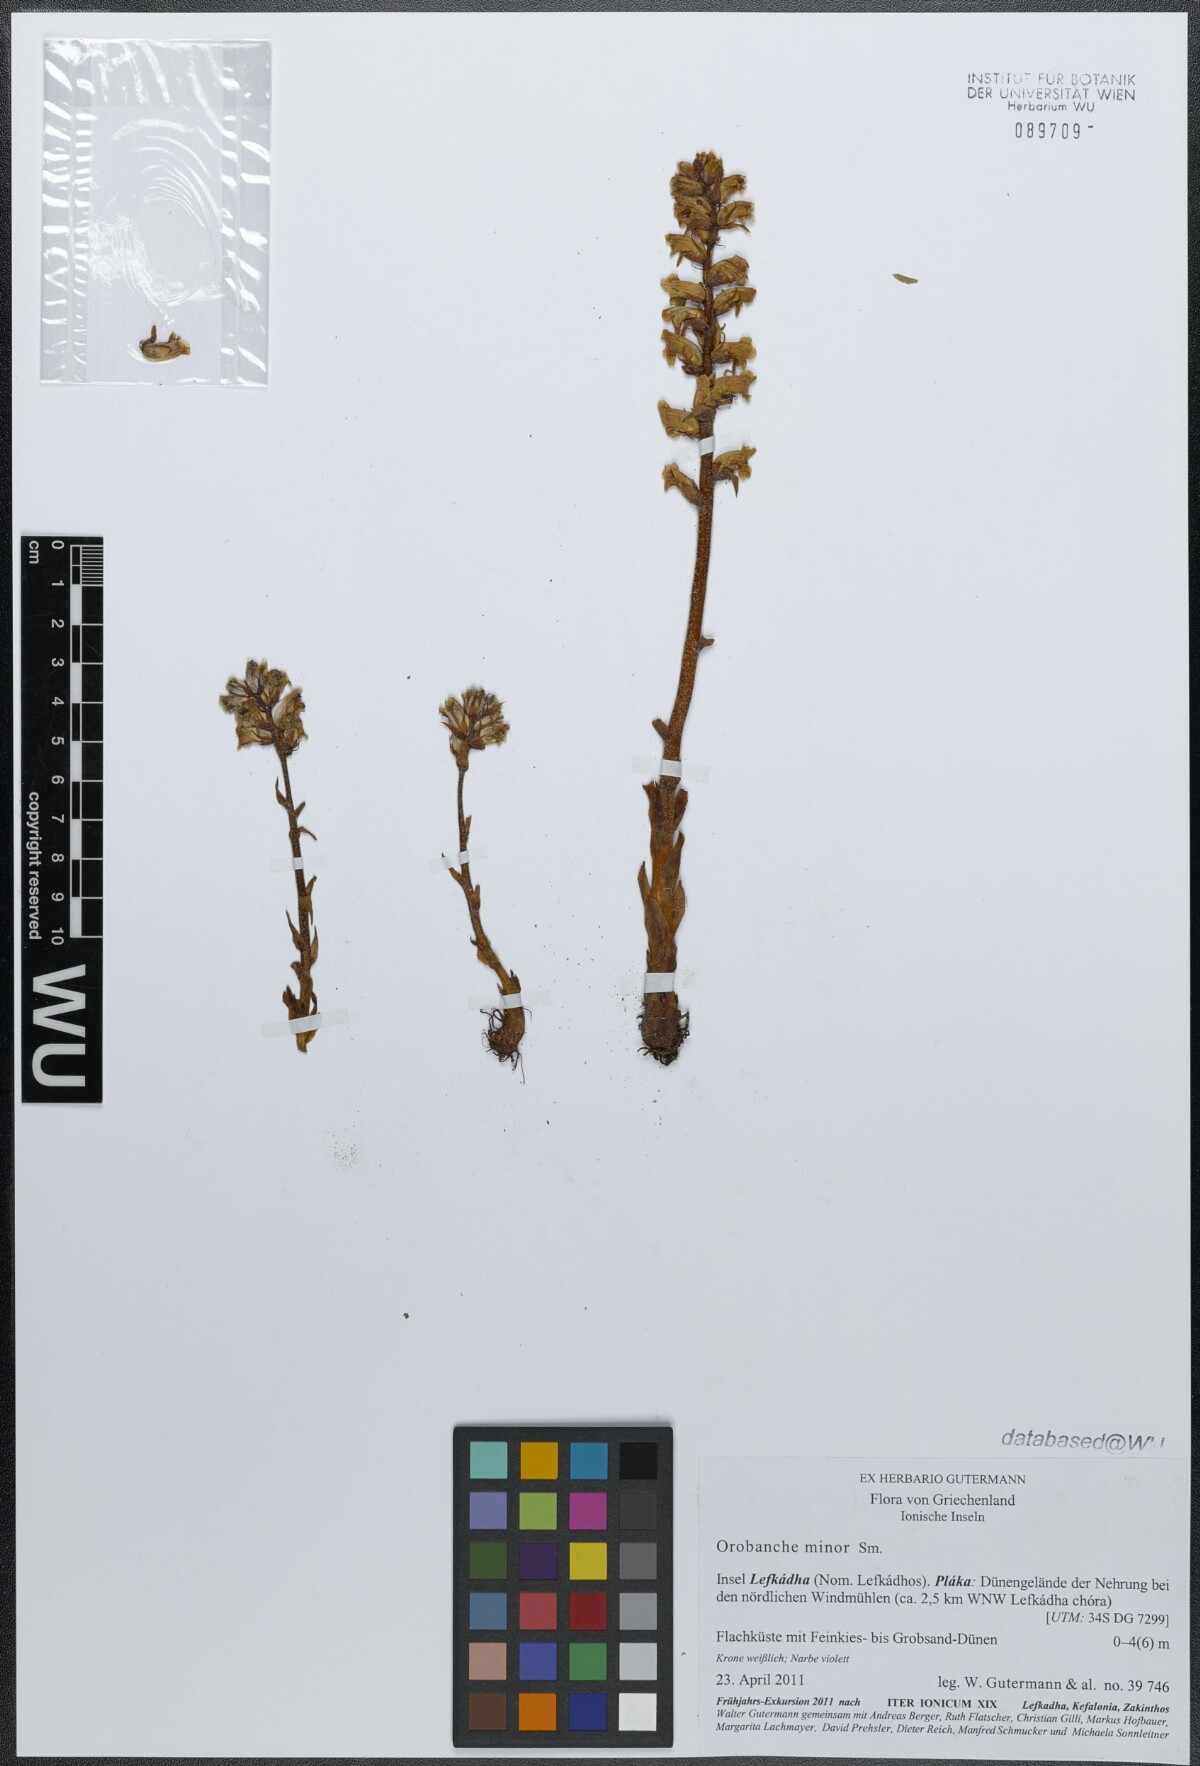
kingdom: Plantae
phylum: Tracheophyta
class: Magnoliopsida
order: Lamiales
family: Orobanchaceae
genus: Orobanche
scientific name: Orobanche grisebachii
